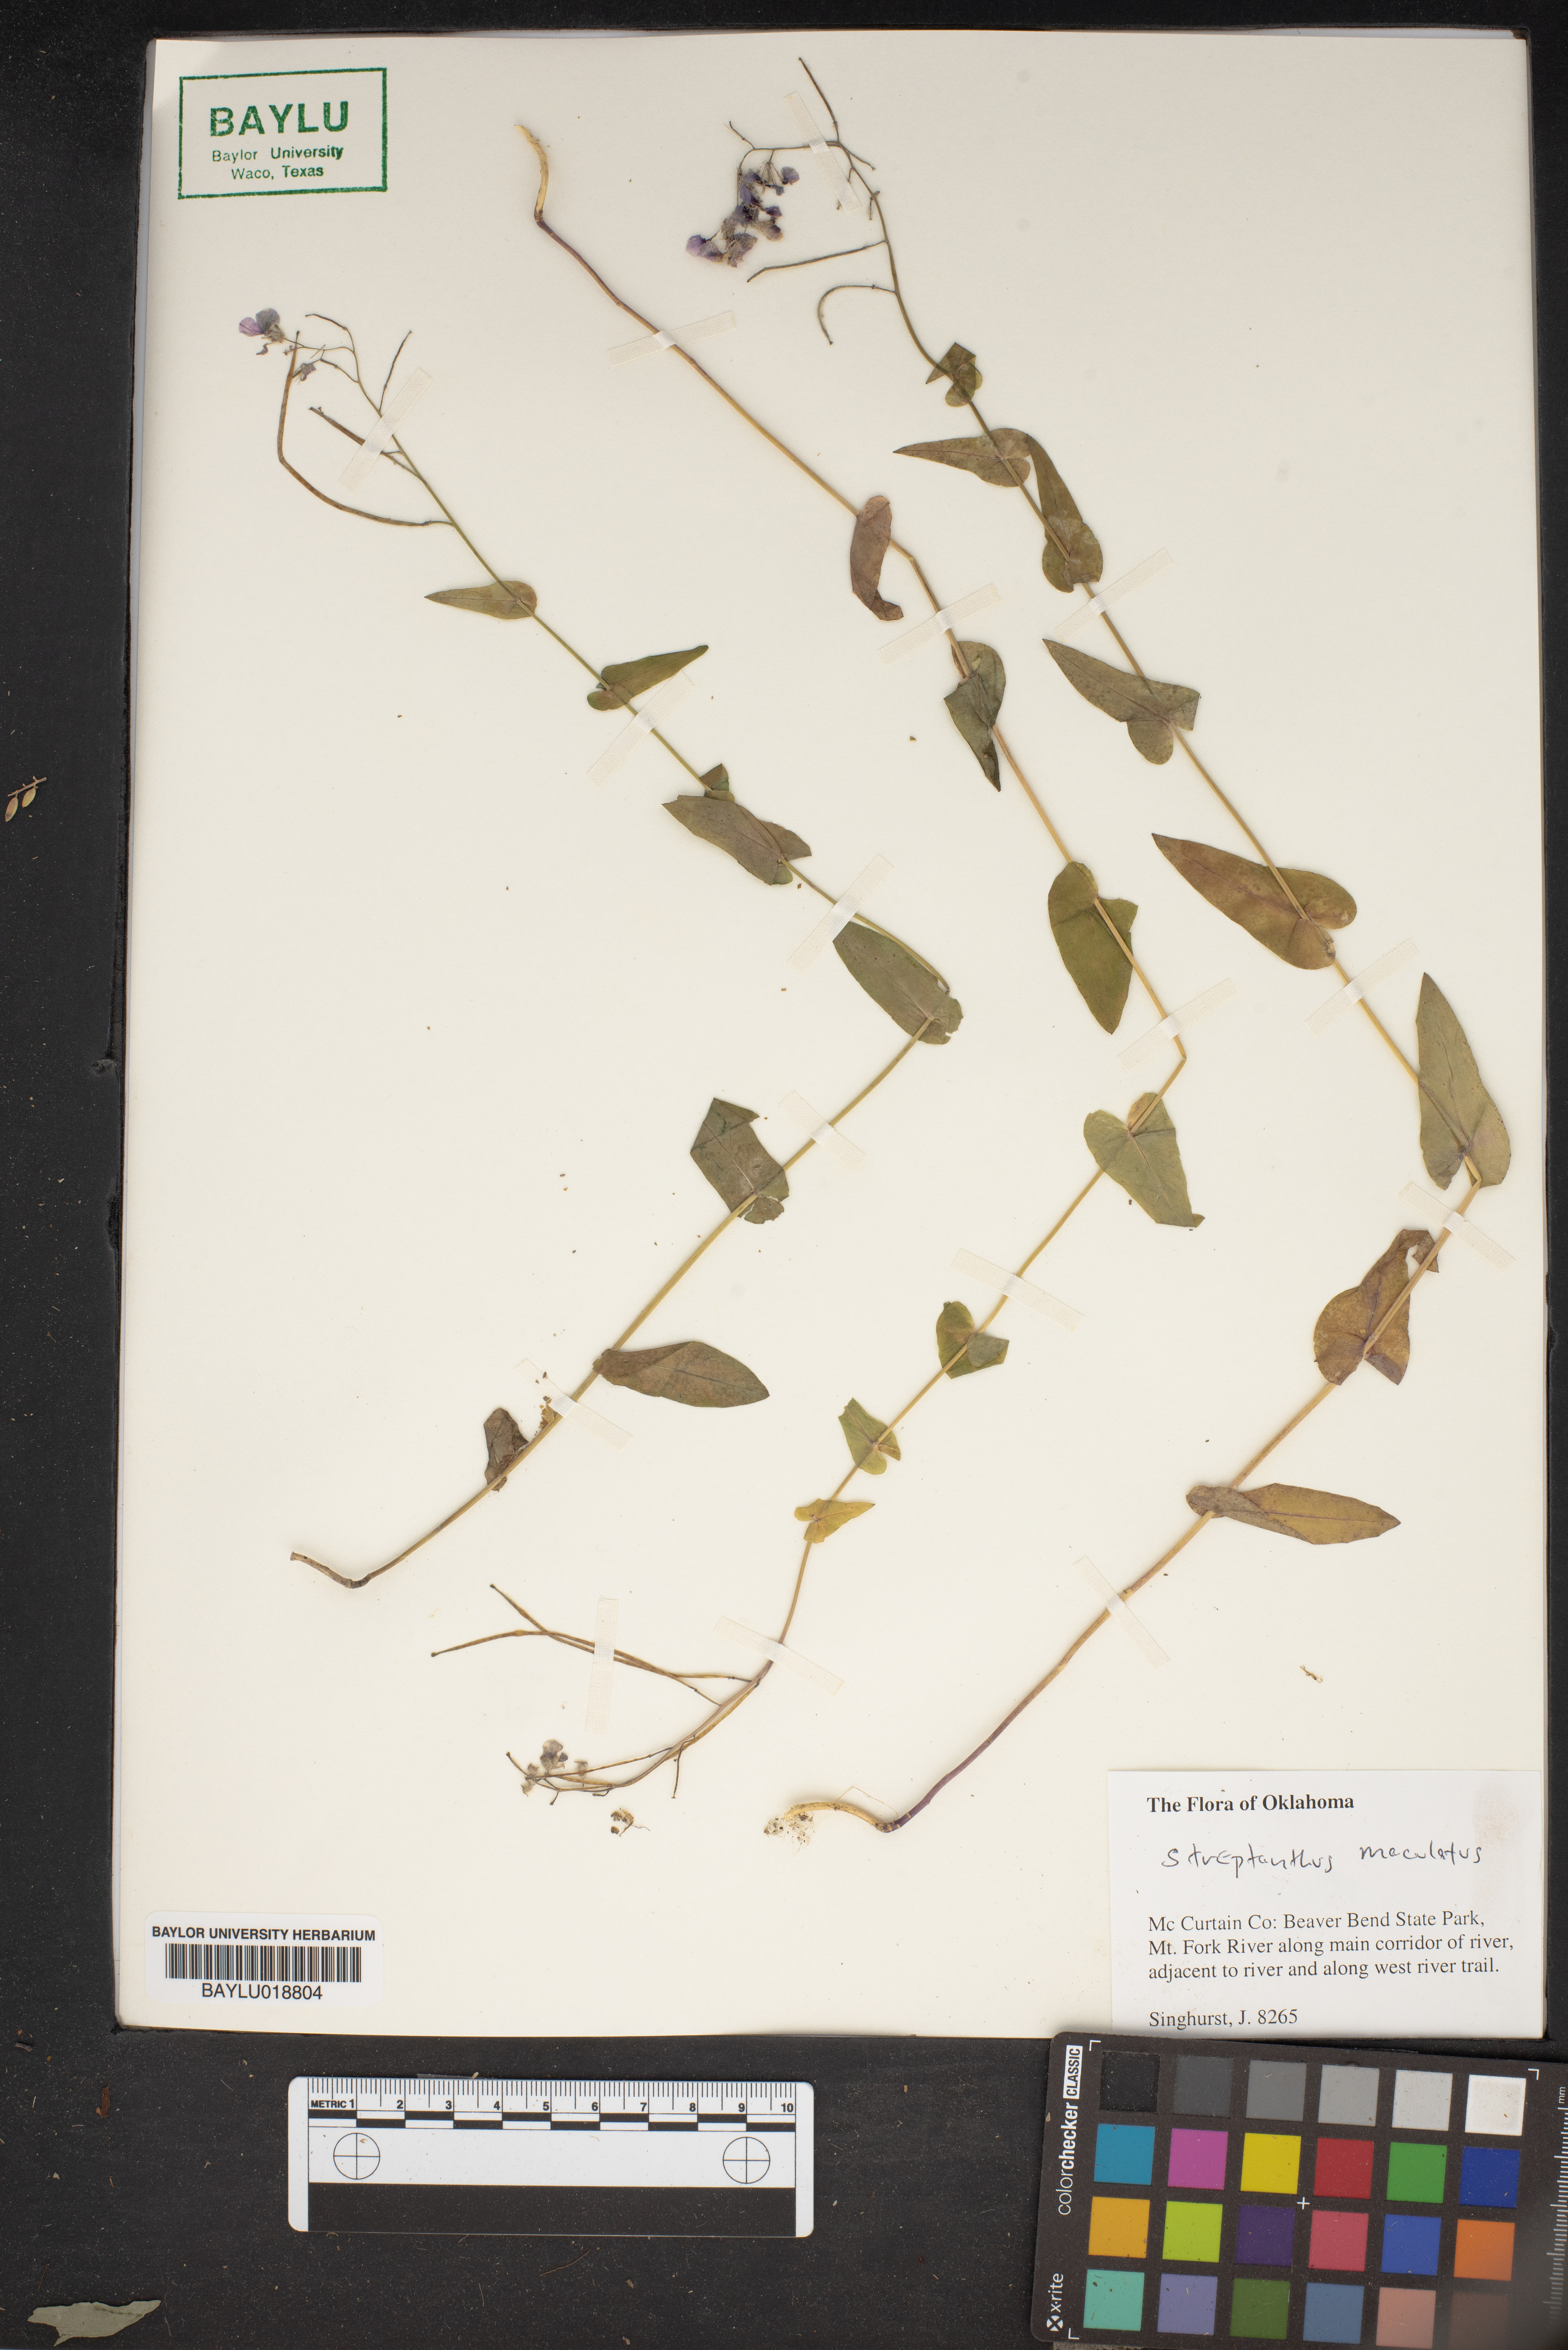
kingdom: Plantae
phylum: Tracheophyta
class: Magnoliopsida
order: Brassicales
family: Brassicaceae
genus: Streptanthus
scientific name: Streptanthus maculatus
